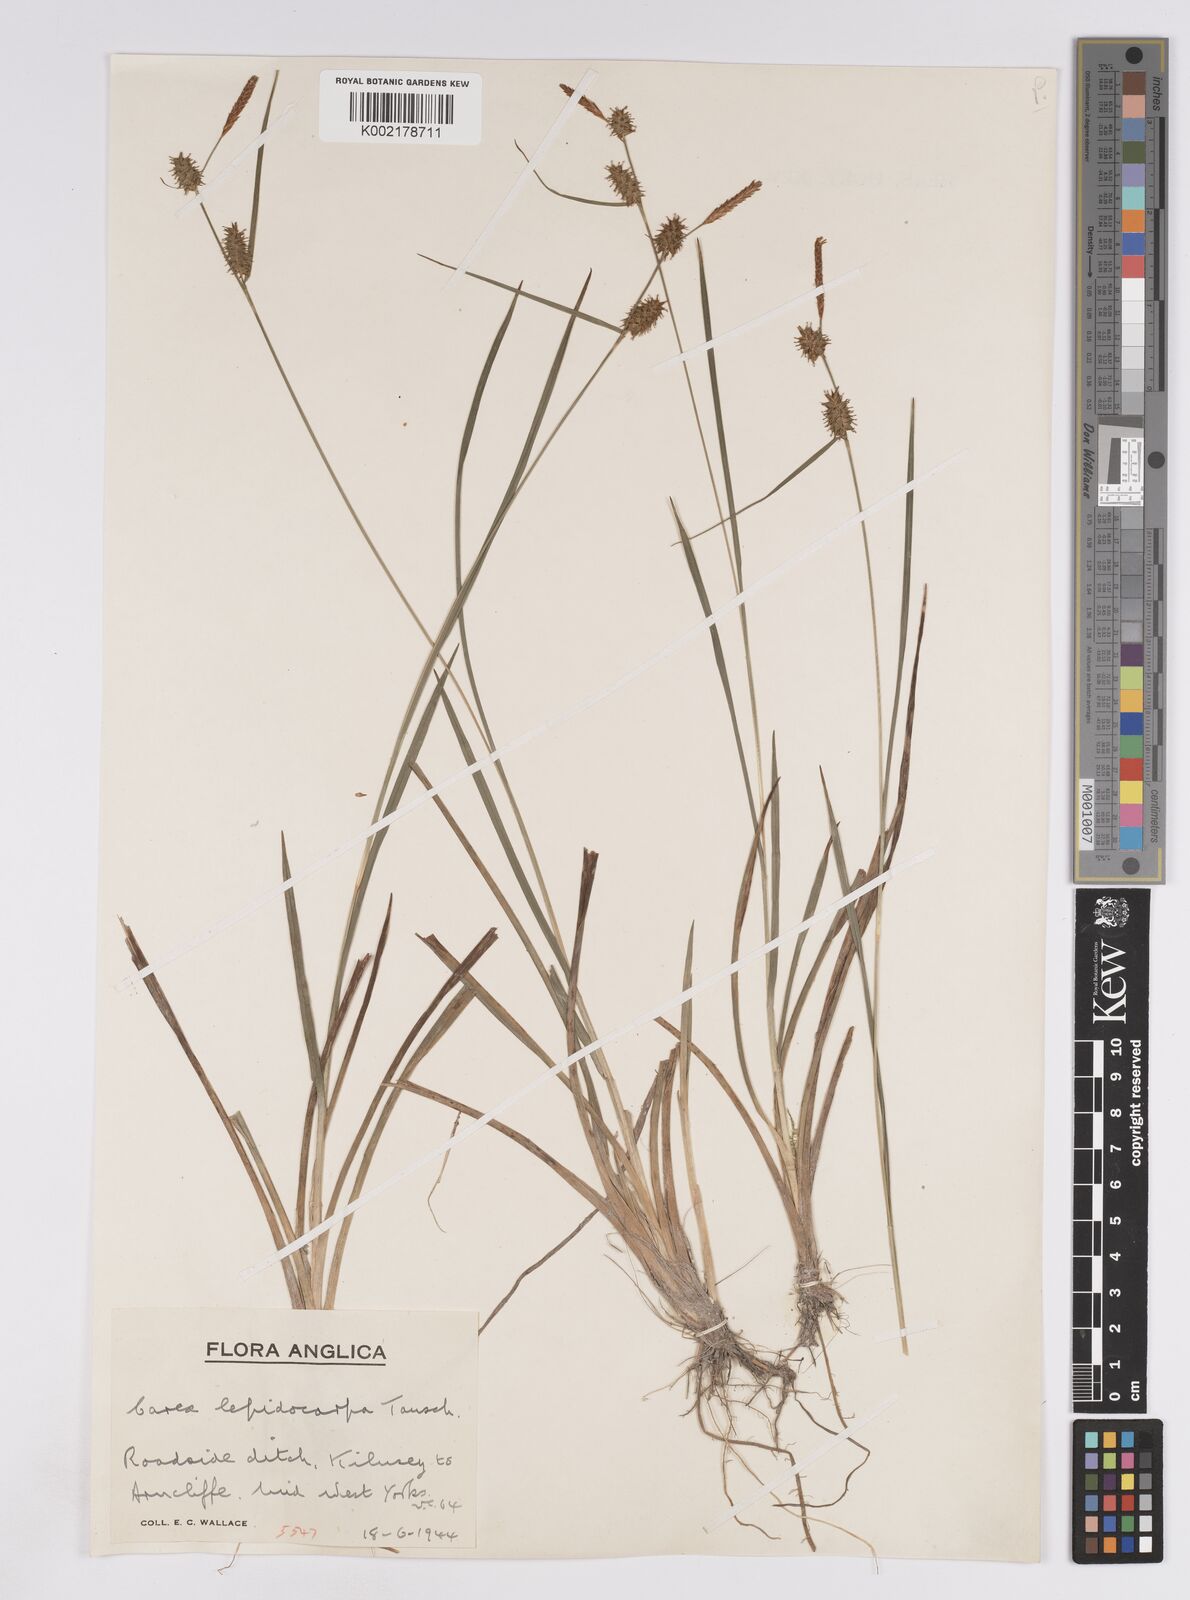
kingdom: Plantae
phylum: Tracheophyta
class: Liliopsida
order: Poales
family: Cyperaceae
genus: Carex
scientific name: Carex lepidocarpa
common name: Long-stalked yellow-sedge
